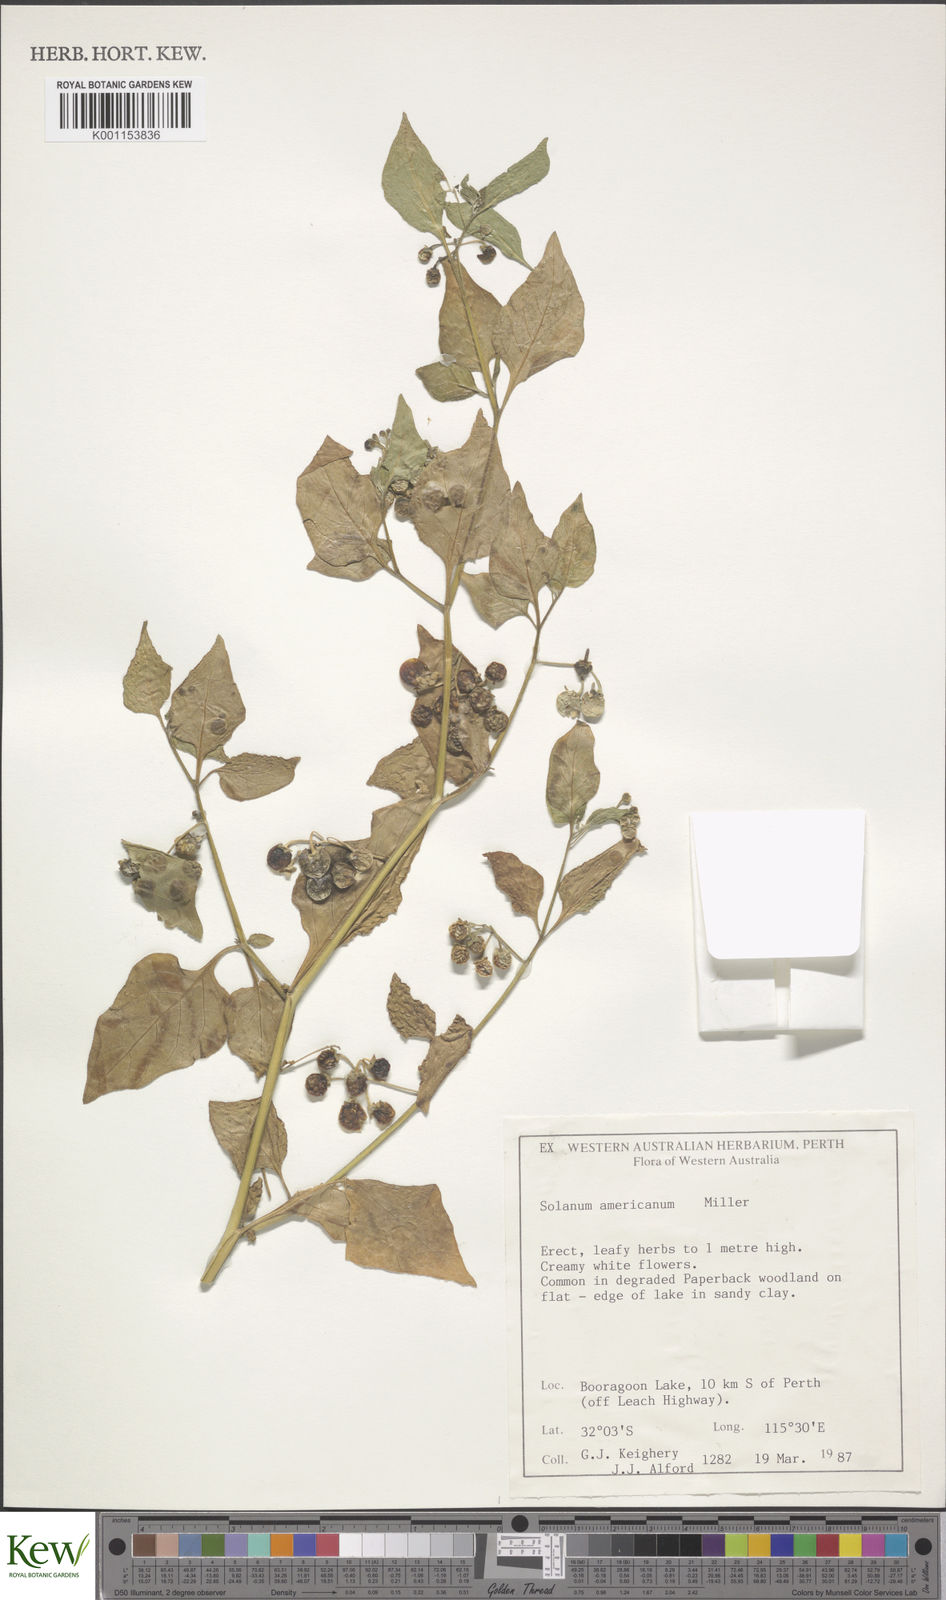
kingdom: Plantae
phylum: Tracheophyta
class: Magnoliopsida
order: Solanales
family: Solanaceae
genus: Solanum
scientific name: Solanum americanum
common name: American black nightshade
